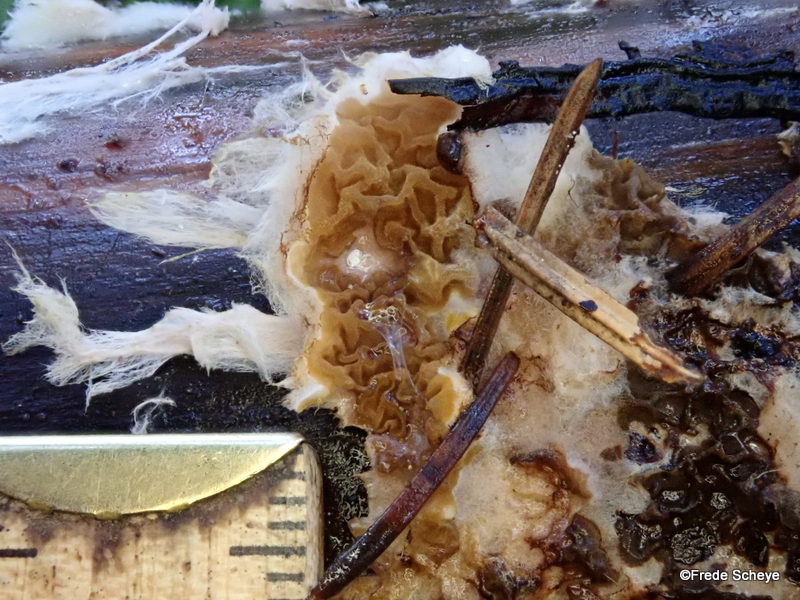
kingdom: Fungi
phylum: Basidiomycota
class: Agaricomycetes
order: Boletales
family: Serpulaceae
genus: Serpula
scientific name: Serpula himantioides
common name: tyndkødet hussvamp
